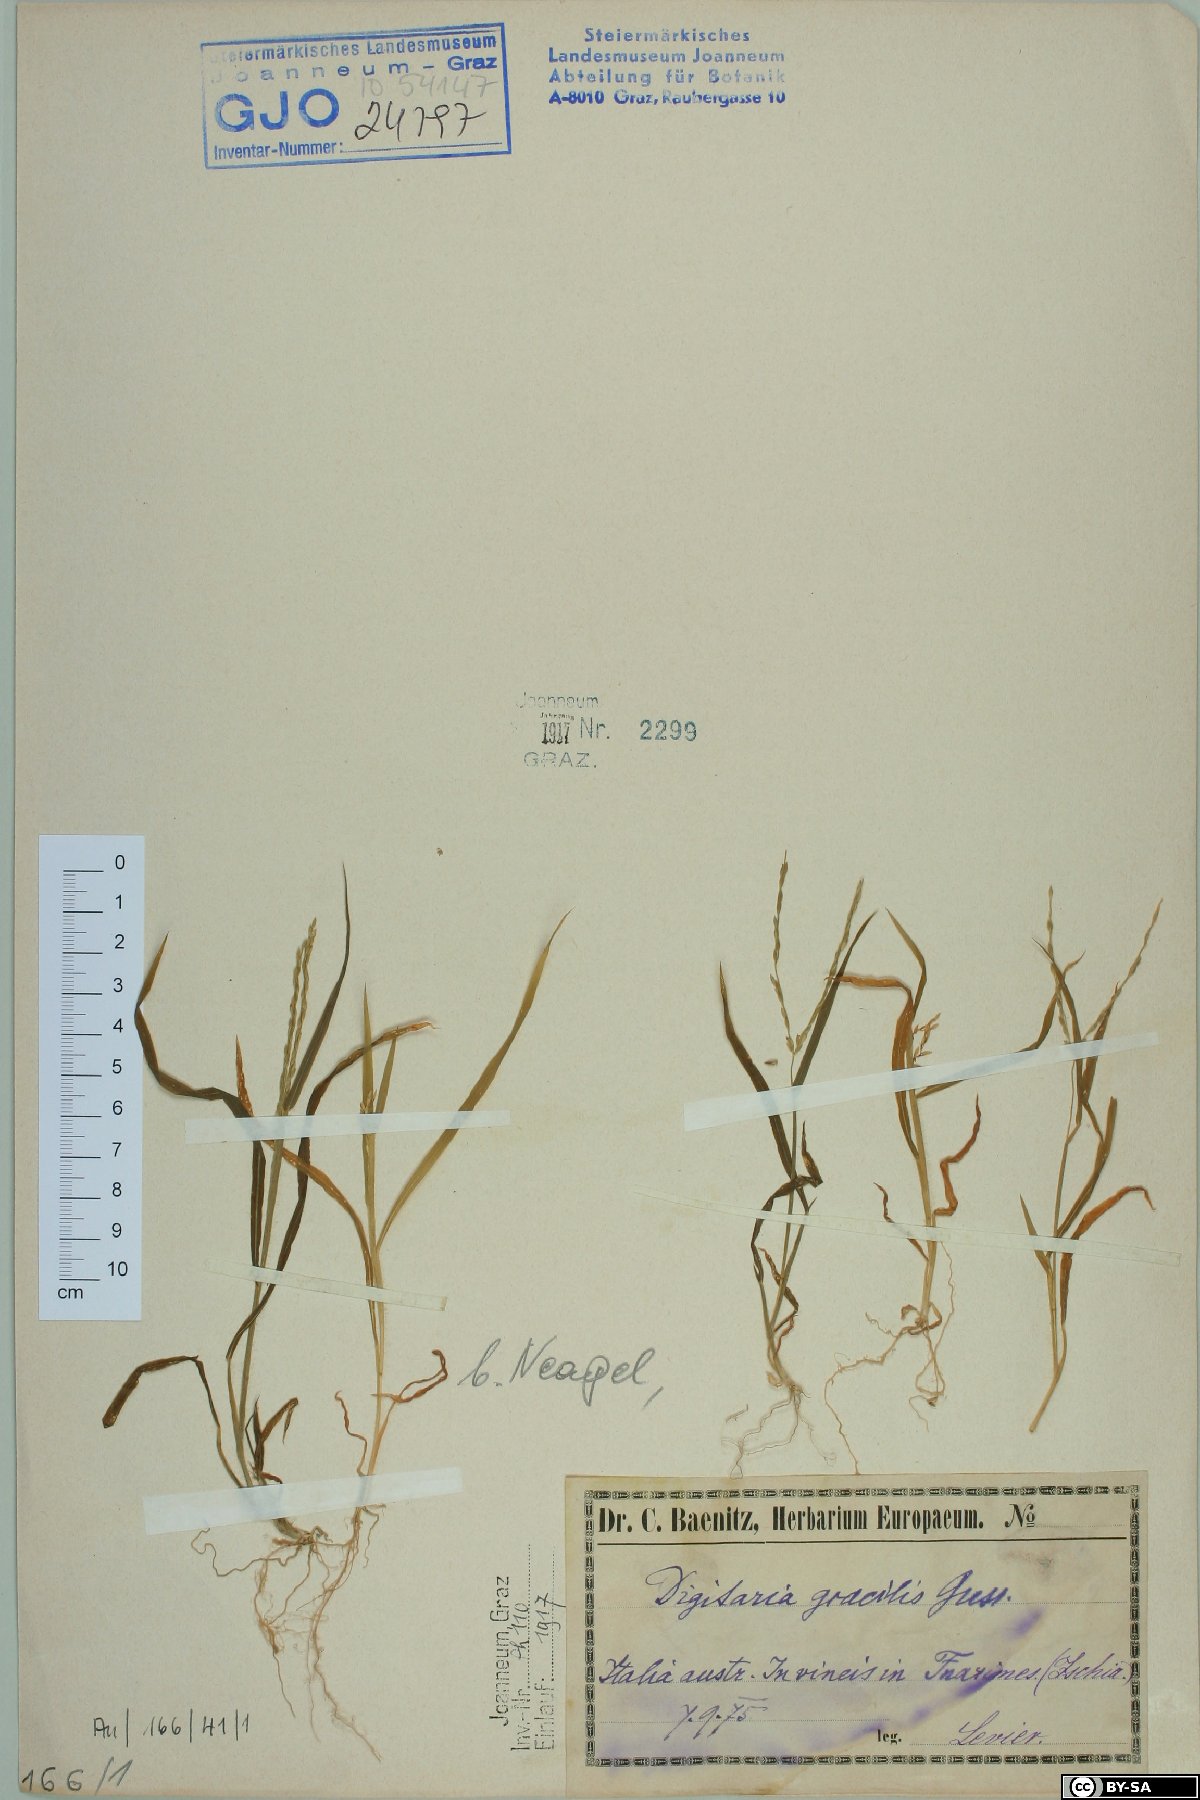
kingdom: Plantae
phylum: Tracheophyta
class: Liliopsida
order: Poales
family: Poaceae
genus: Digitaria
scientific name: Digitaria sanguinalis
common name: Hairy crabgrass
